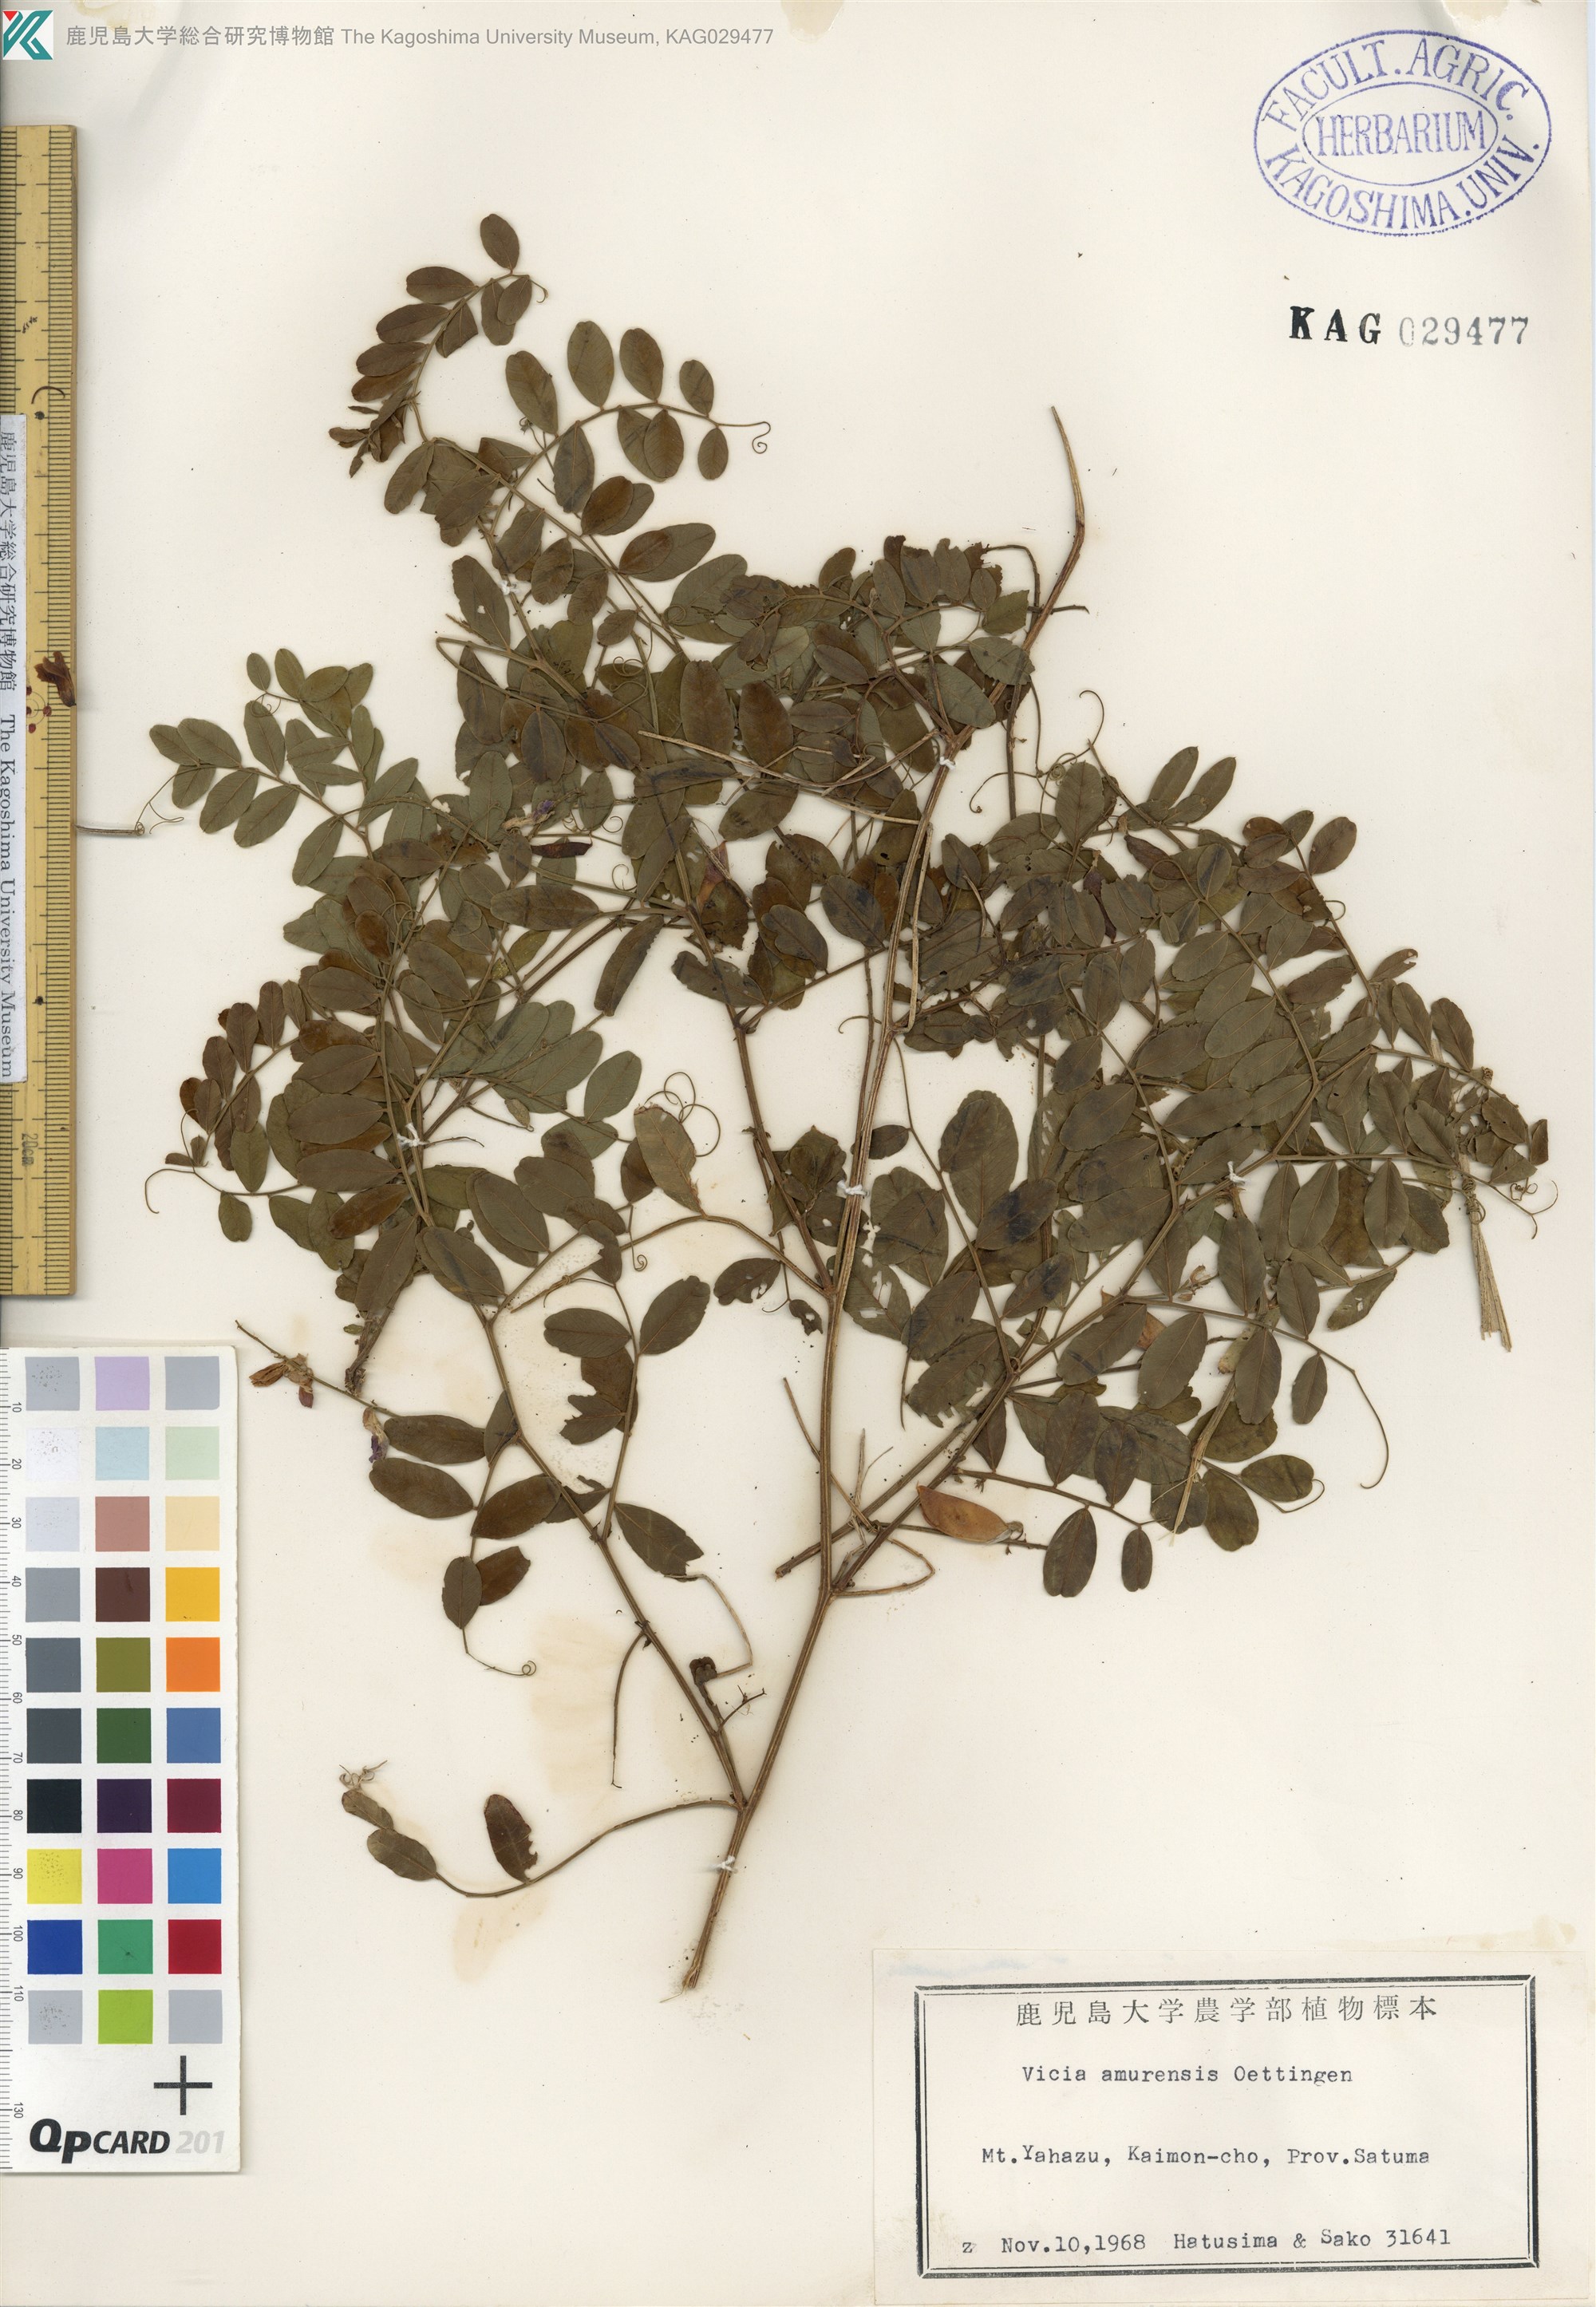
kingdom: Plantae
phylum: Tracheophyta
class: Magnoliopsida
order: Fabales
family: Fabaceae
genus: Vicia
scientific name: Vicia amurensis
